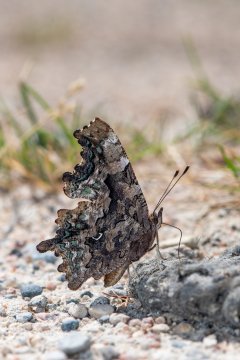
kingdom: Animalia
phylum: Arthropoda
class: Insecta
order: Lepidoptera
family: Nymphalidae
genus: Polygonia
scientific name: Polygonia faunus
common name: Green Comma
